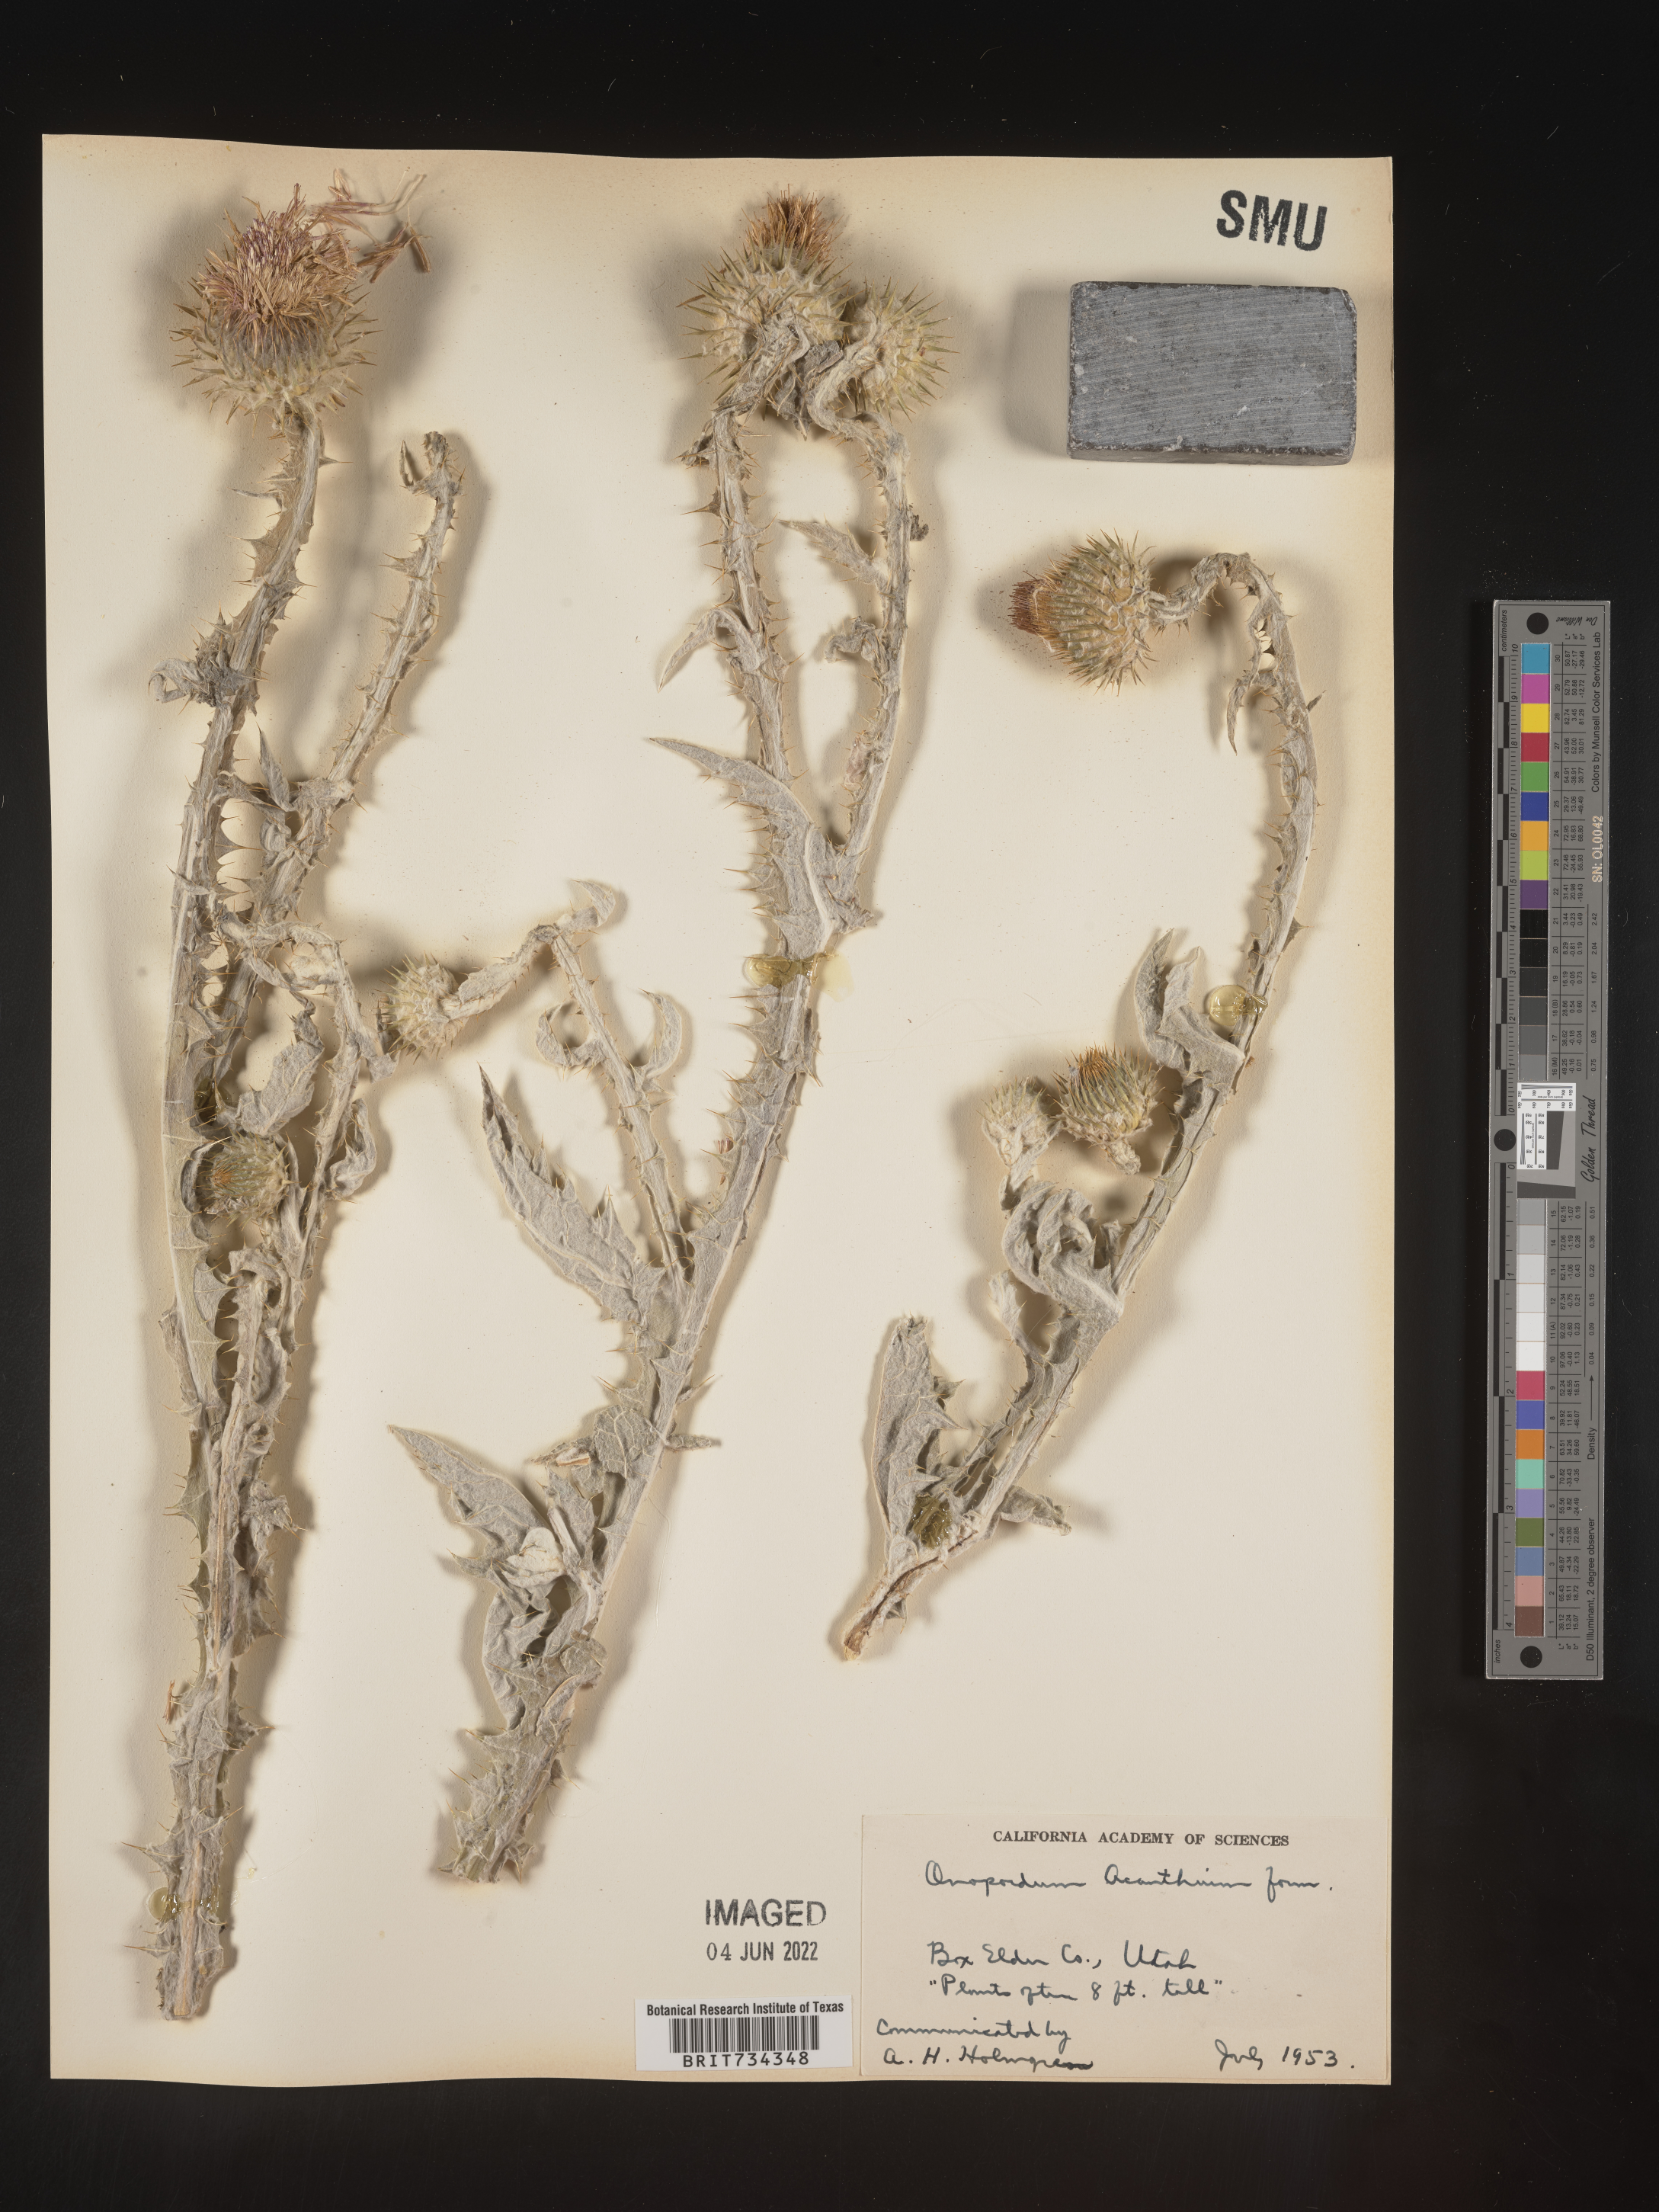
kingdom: Plantae
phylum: Tracheophyta
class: Magnoliopsida
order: Asterales
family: Asteraceae
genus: Onopordum
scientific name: Onopordum acanthium
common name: Scotch thistle
